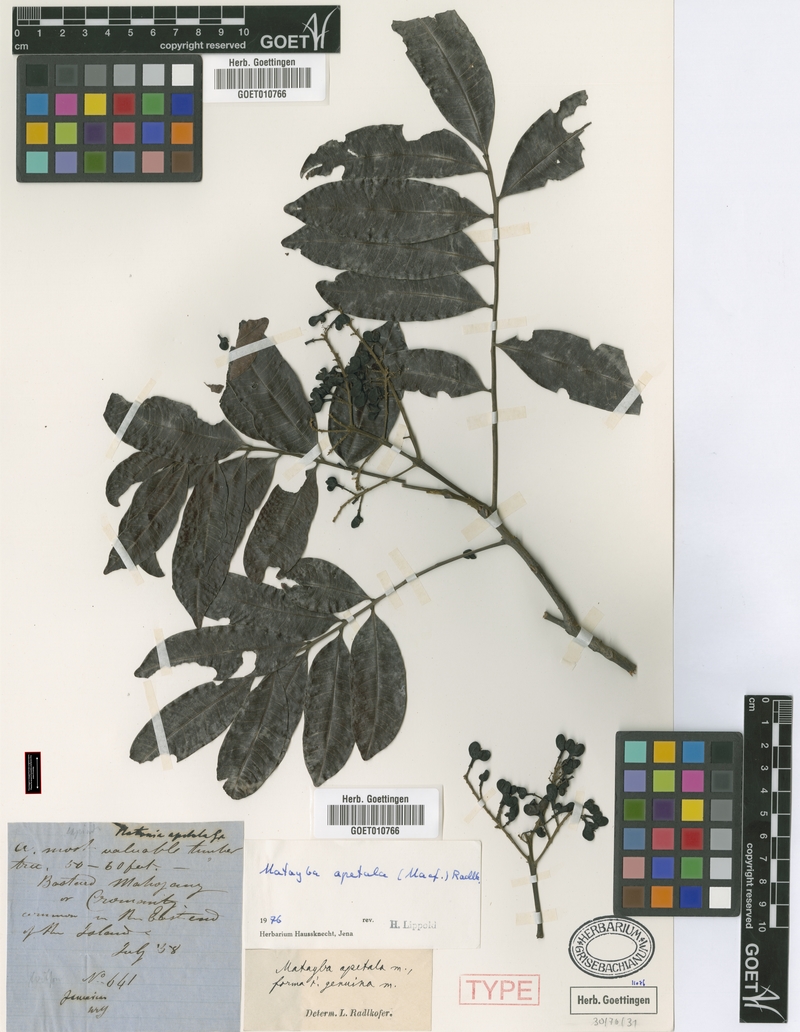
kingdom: Plantae
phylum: Tracheophyta
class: Magnoliopsida
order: Sapindales
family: Sapindaceae
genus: Matayba
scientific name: Matayba apetala
